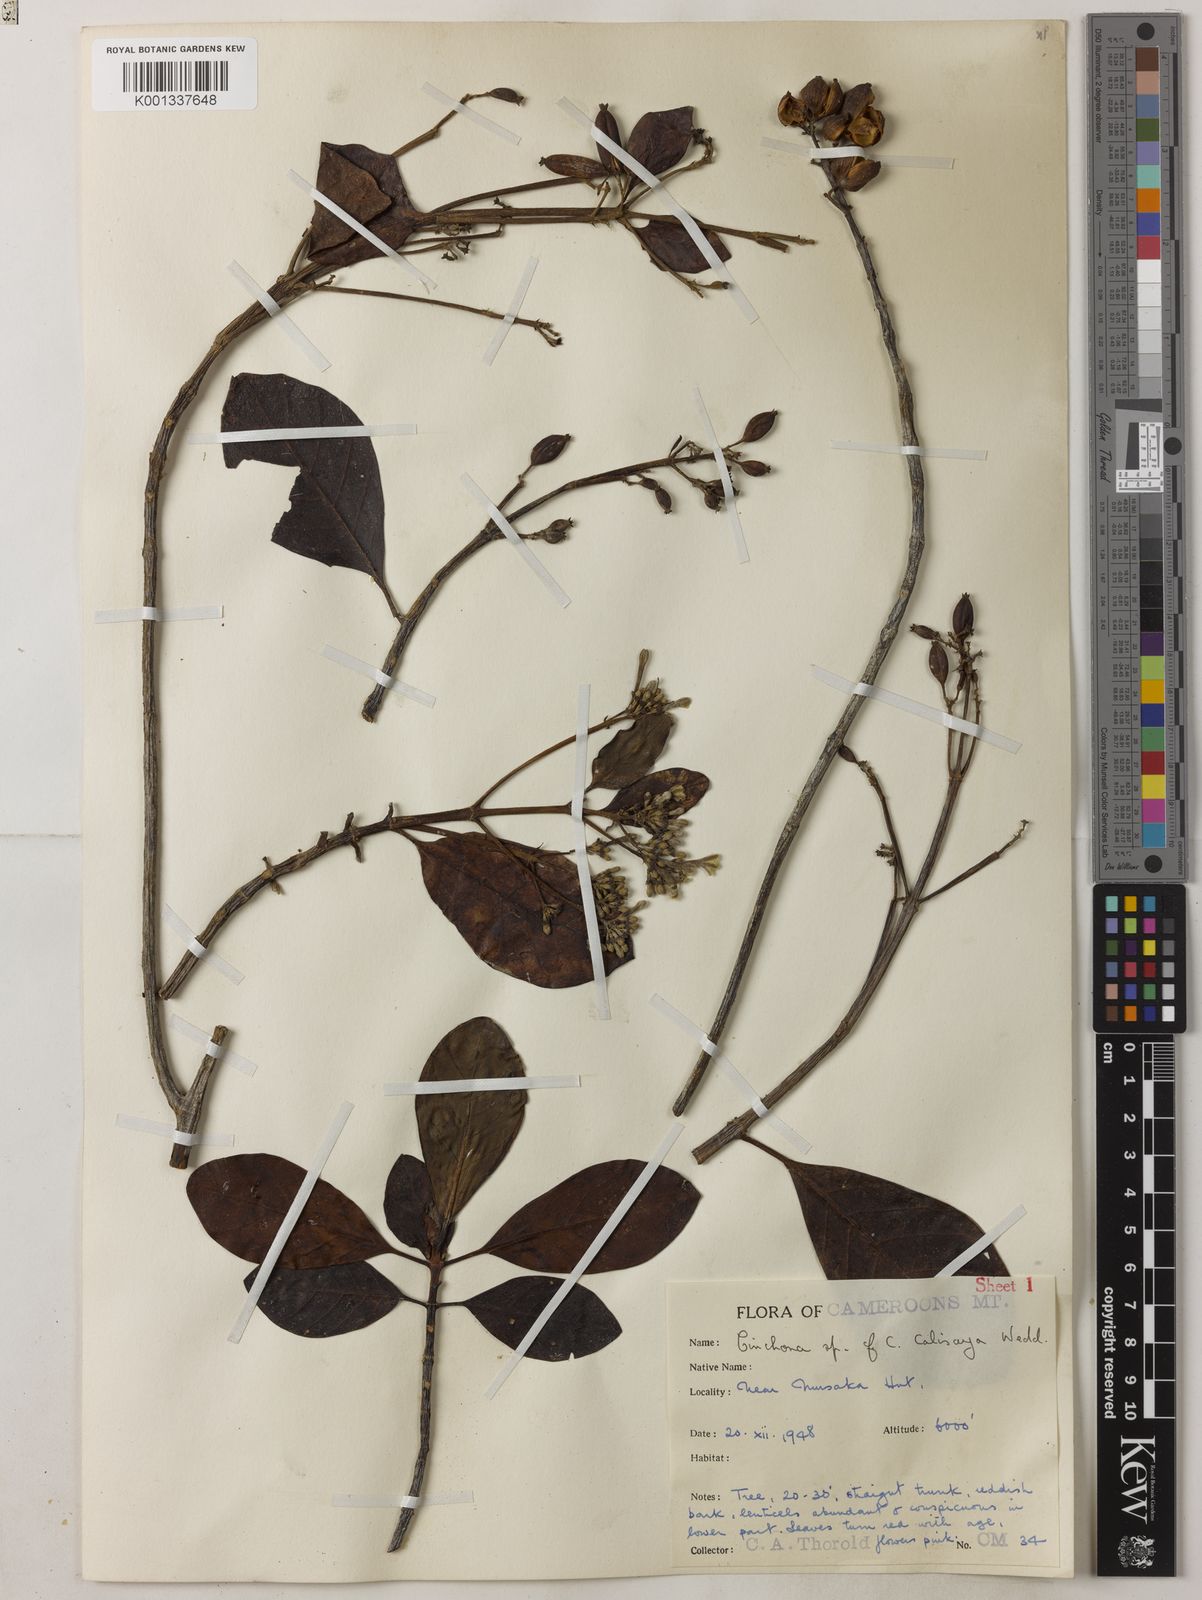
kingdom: Plantae
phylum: Tracheophyta
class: Magnoliopsida
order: Gentianales
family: Rubiaceae
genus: Cinchona
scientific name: Cinchona calisaya
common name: Ledgerbark
